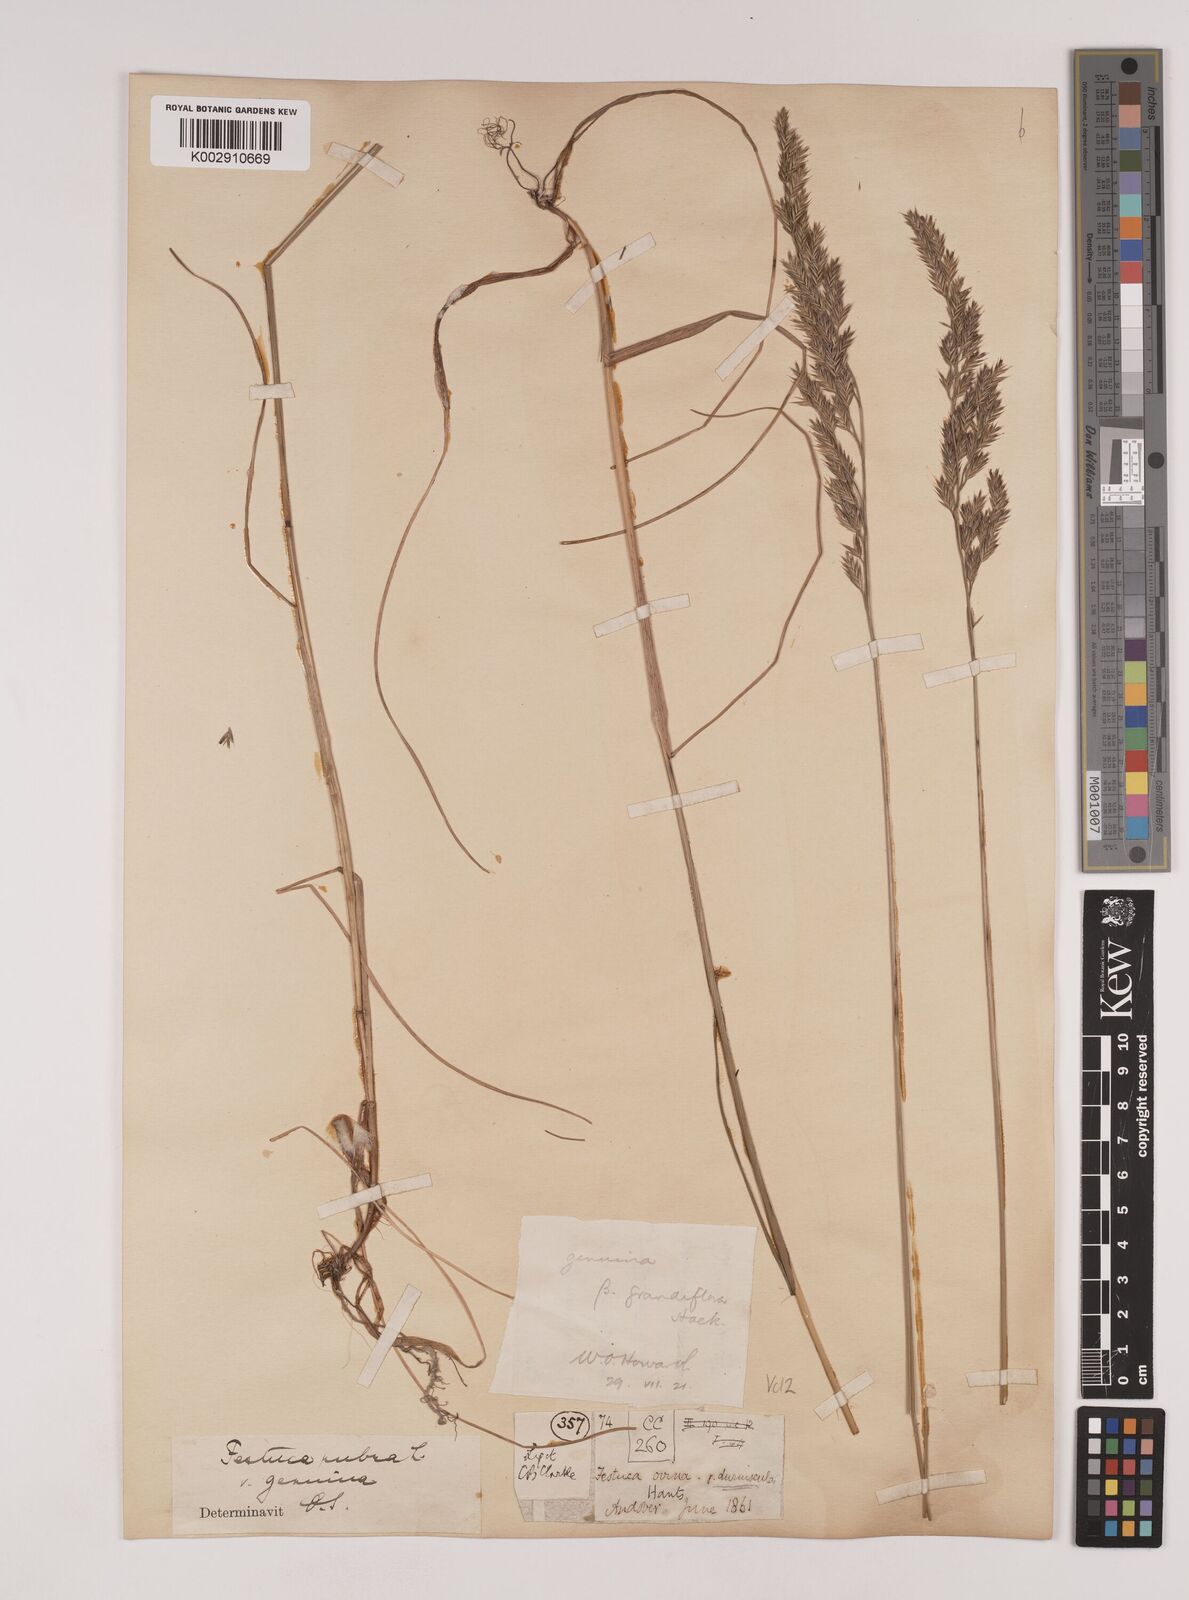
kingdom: Plantae
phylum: Tracheophyta
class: Liliopsida
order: Poales
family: Poaceae
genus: Festuca
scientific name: Festuca rubra
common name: Red fescue
